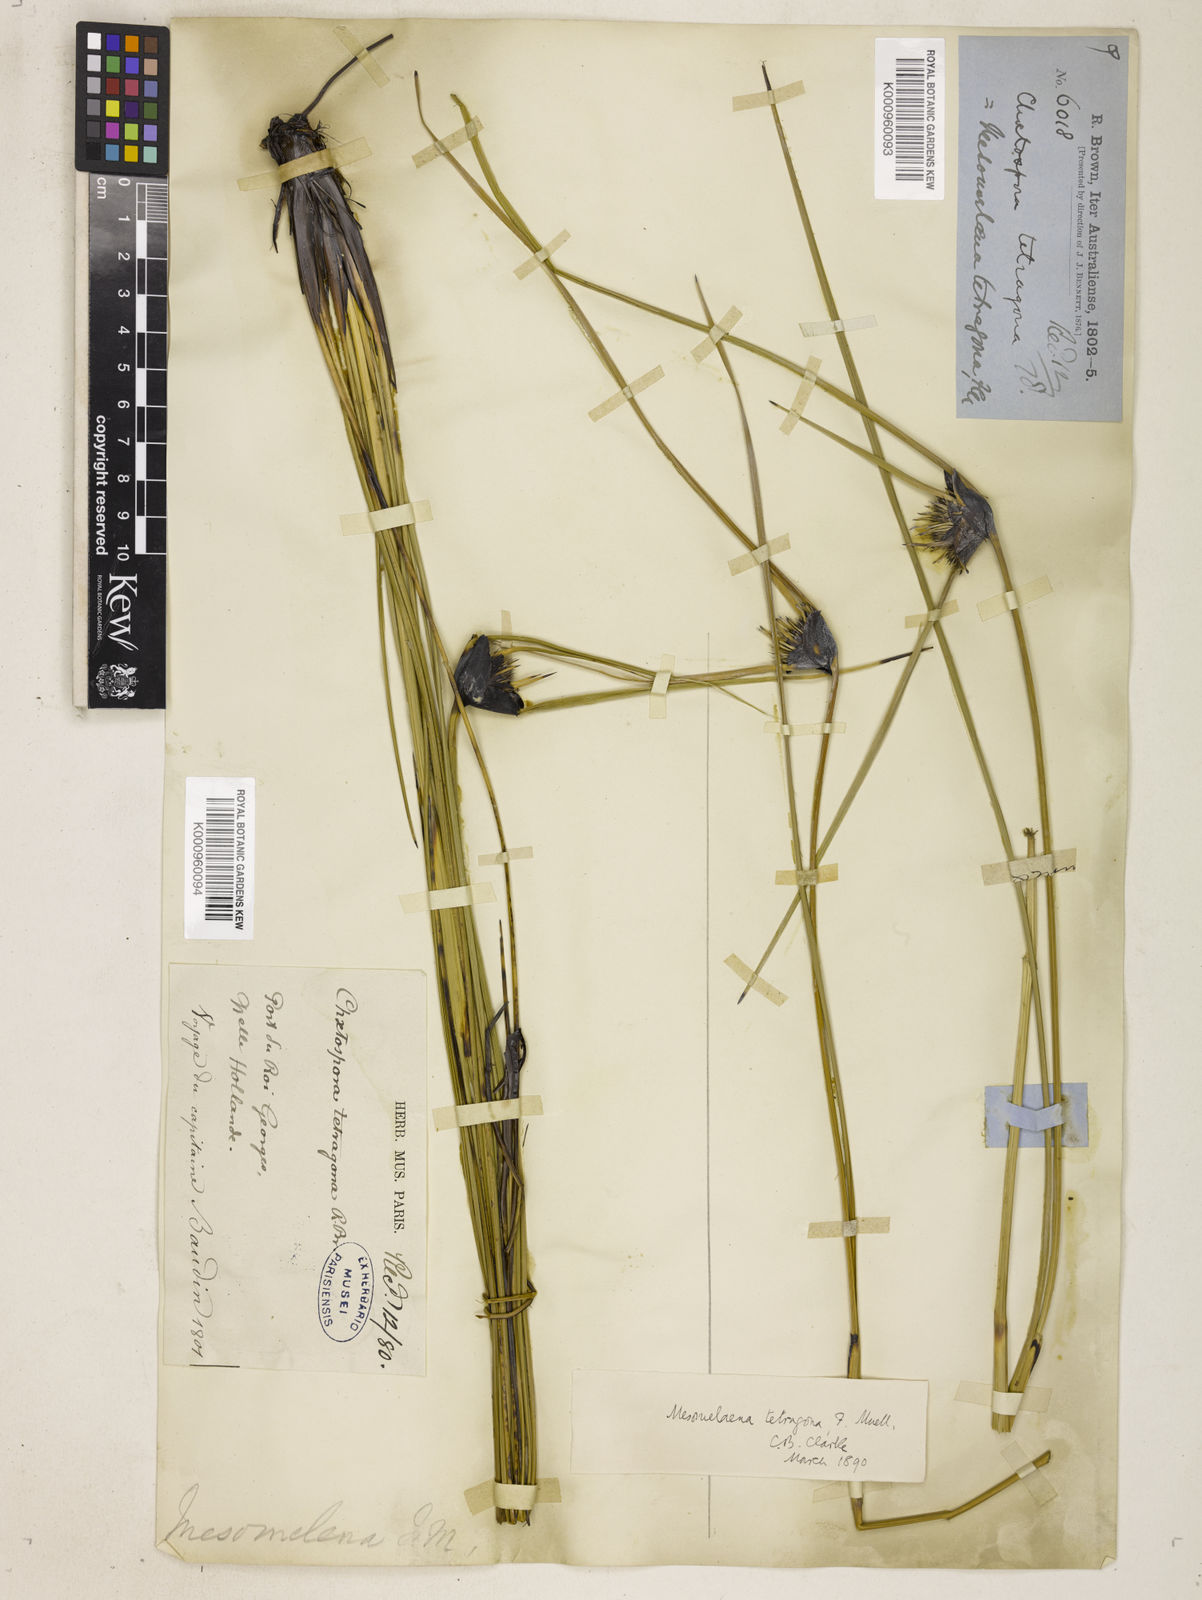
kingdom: Plantae
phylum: Tracheophyta
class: Liliopsida
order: Poales
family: Cyperaceae
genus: Mesomelaena
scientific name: Mesomelaena
